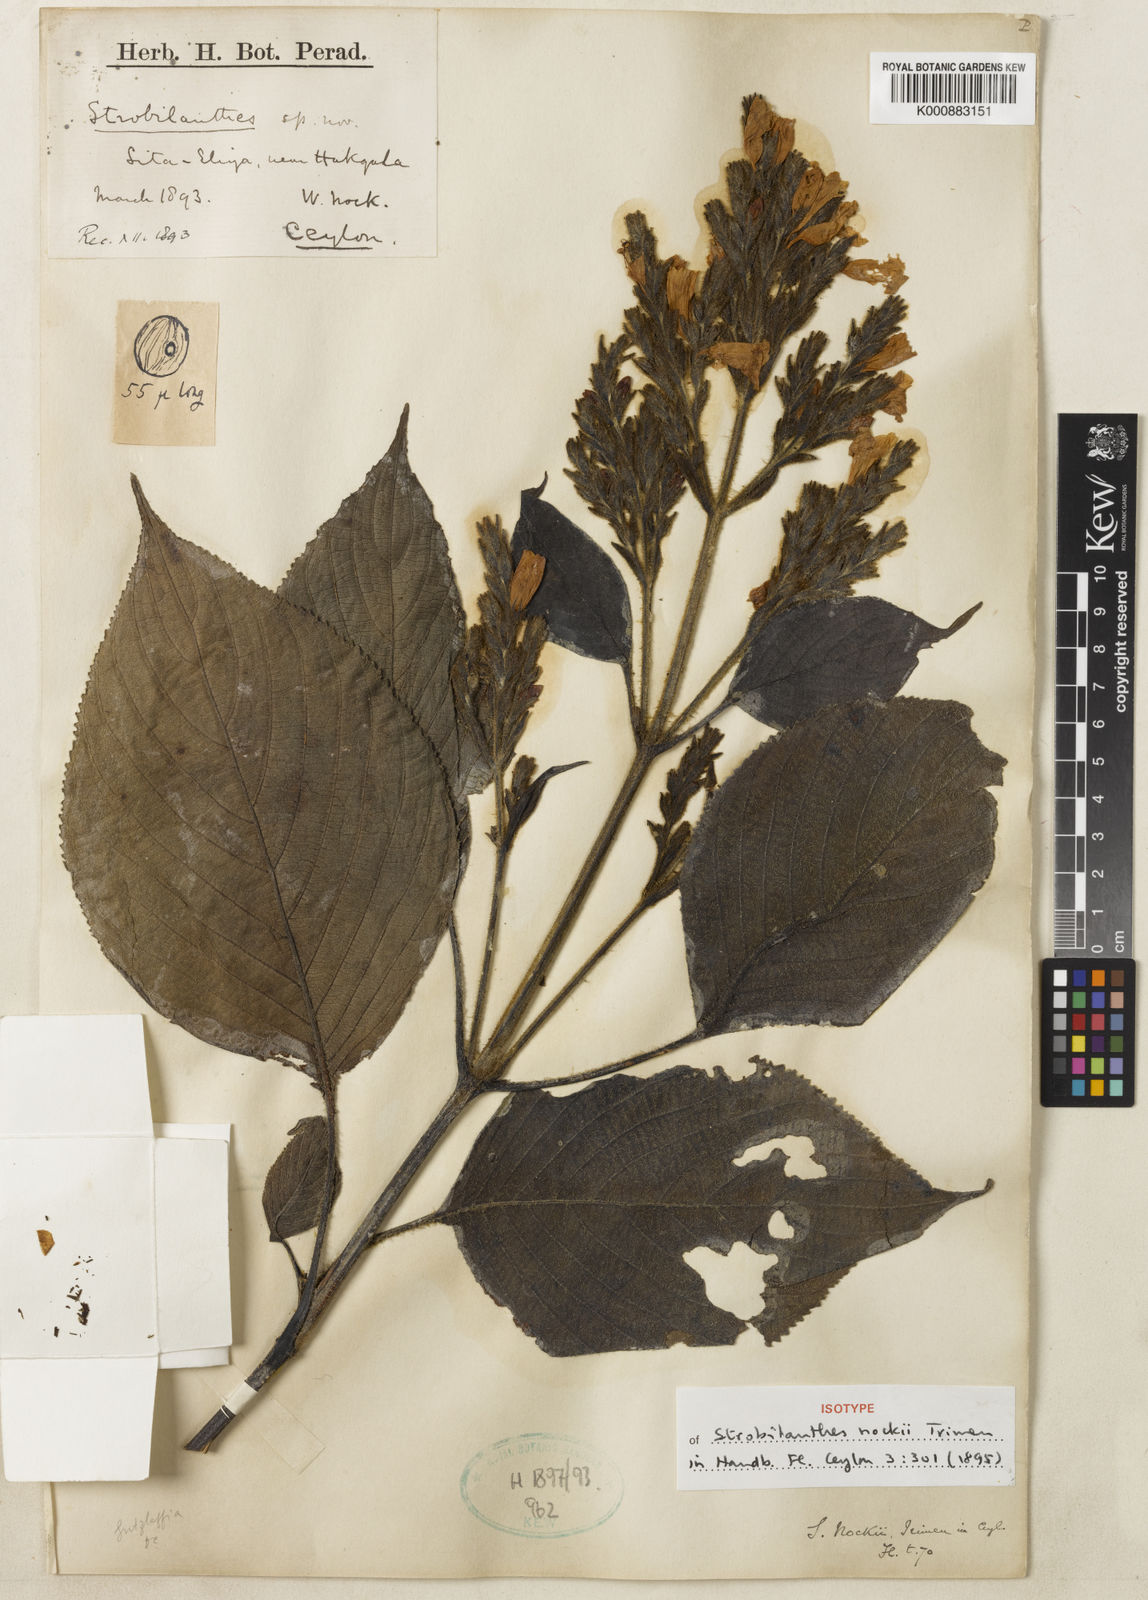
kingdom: Plantae
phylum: Tracheophyta
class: Magnoliopsida
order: Lamiales
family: Acanthaceae
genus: Strobilanthes
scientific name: Strobilanthes
